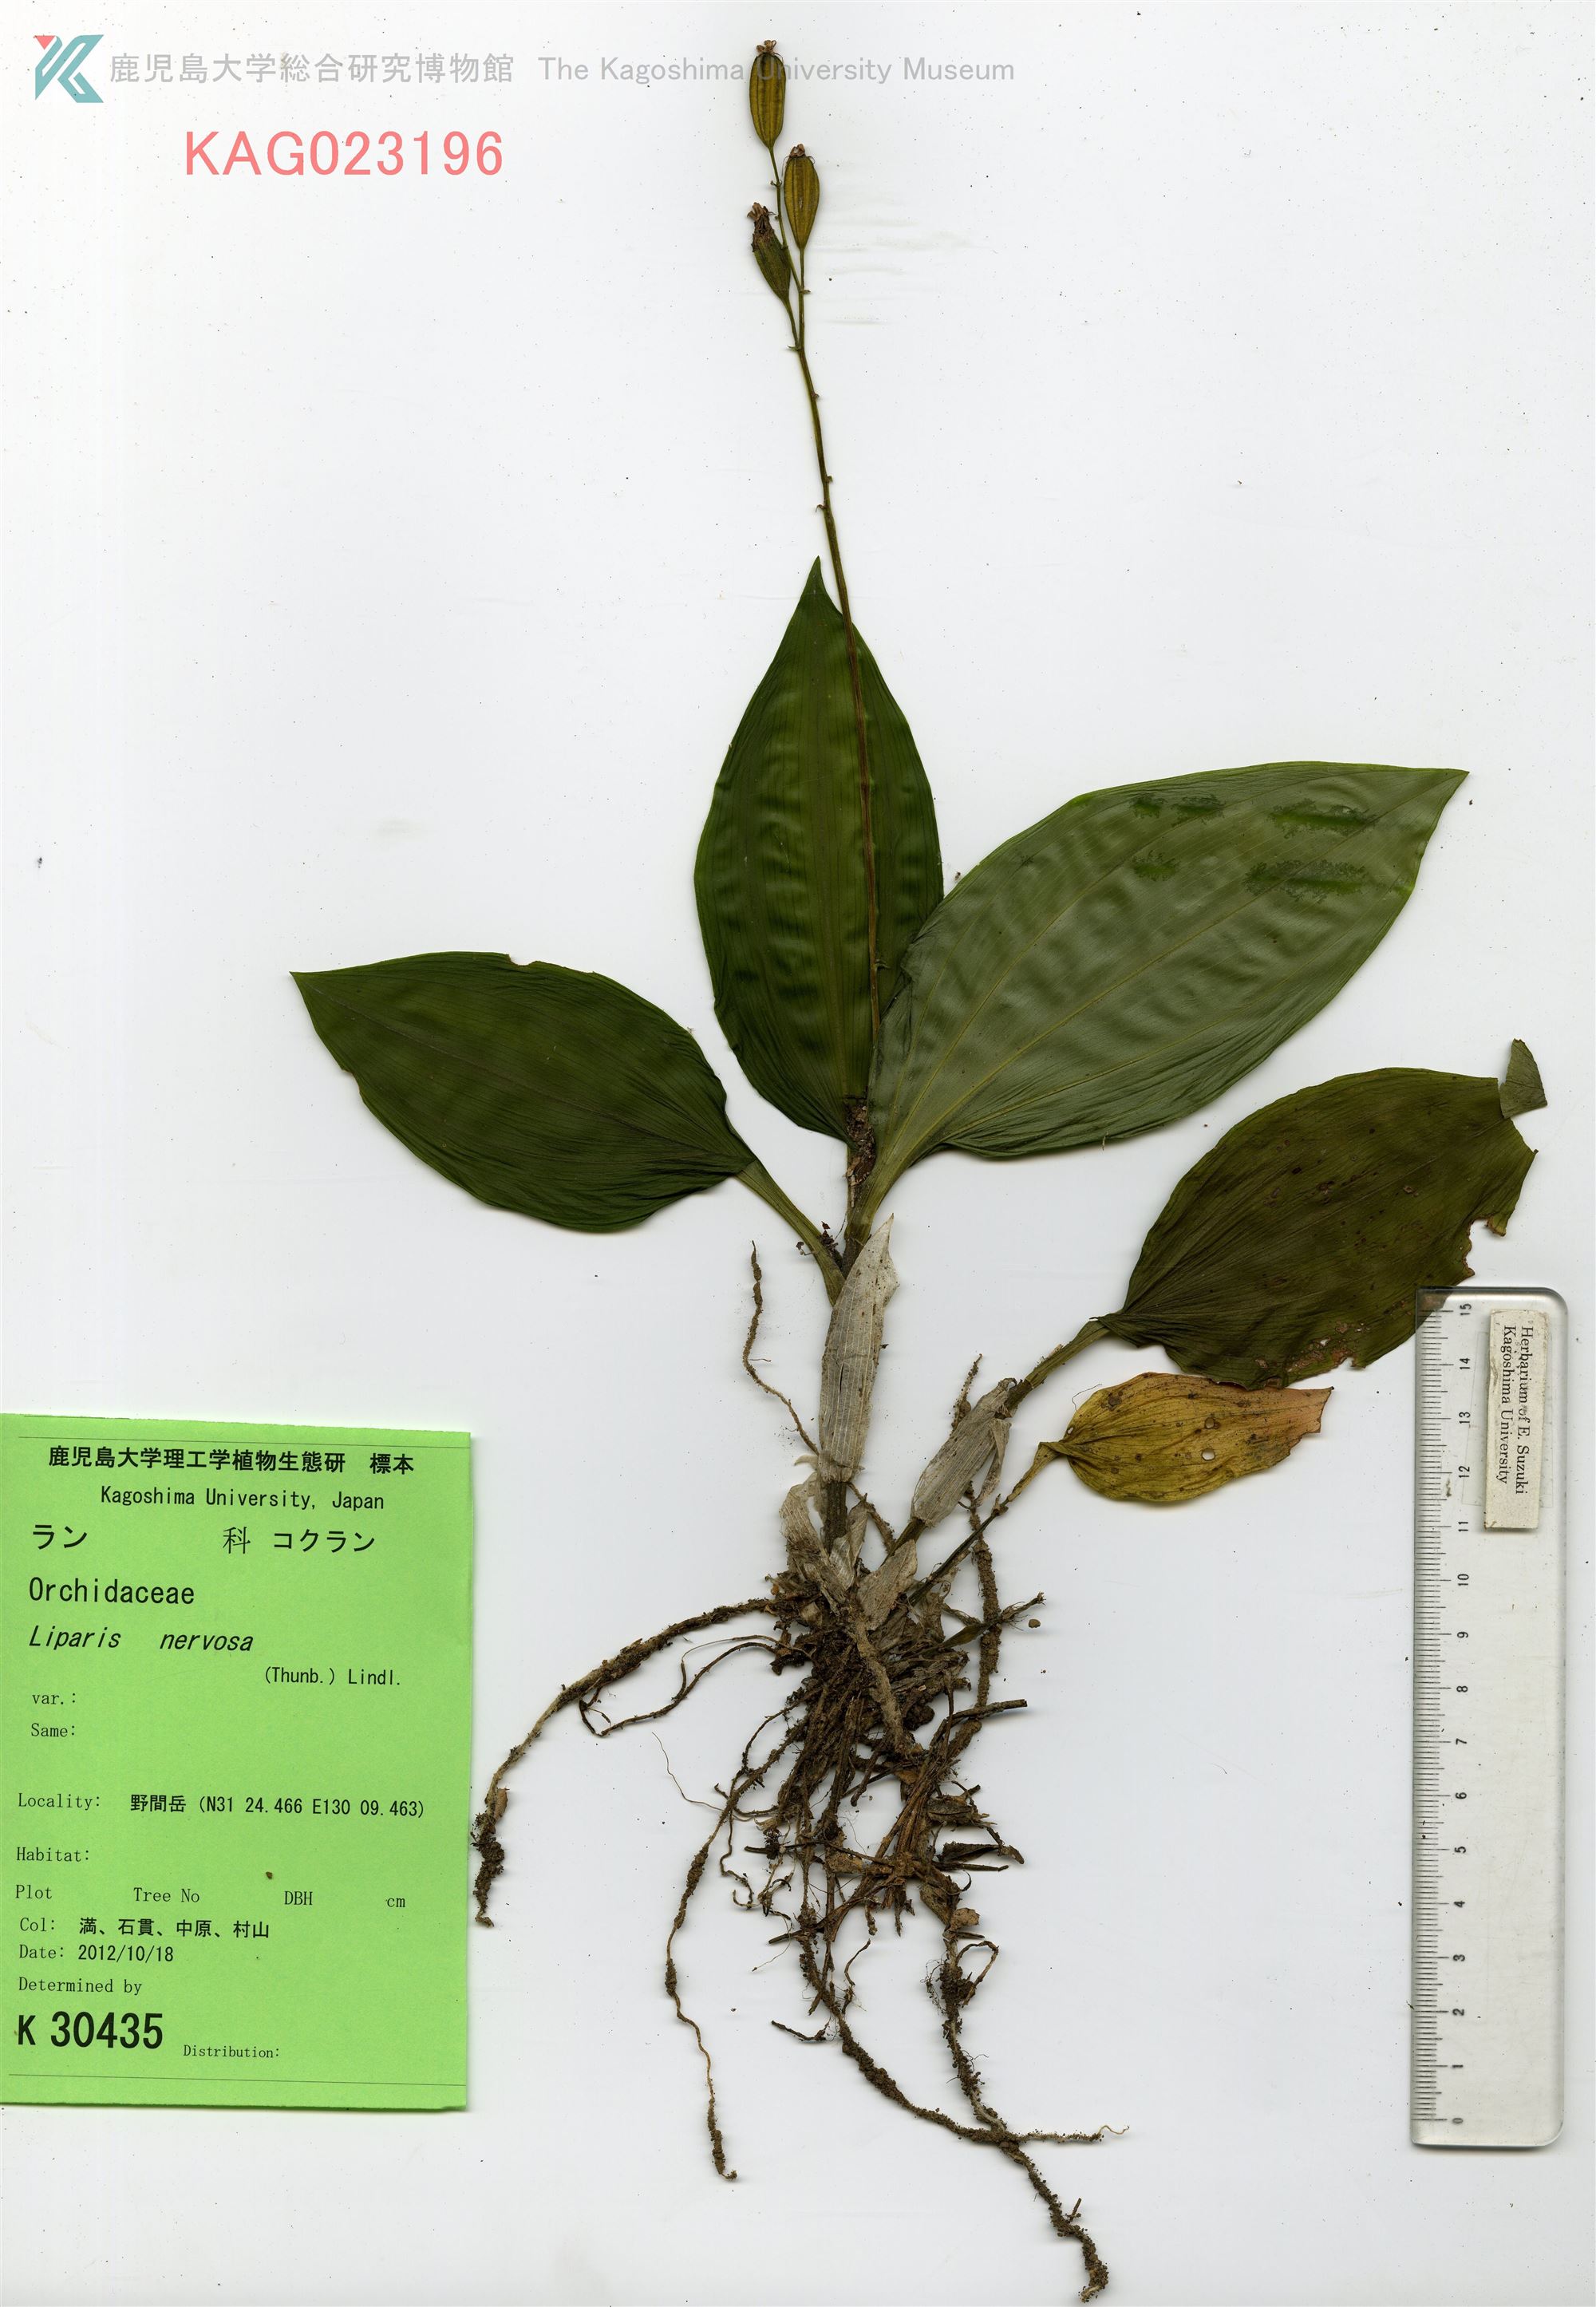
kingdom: Plantae
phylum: Tracheophyta
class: Liliopsida
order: Asparagales
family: Orchidaceae
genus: Liparis
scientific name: Liparis nervosa
